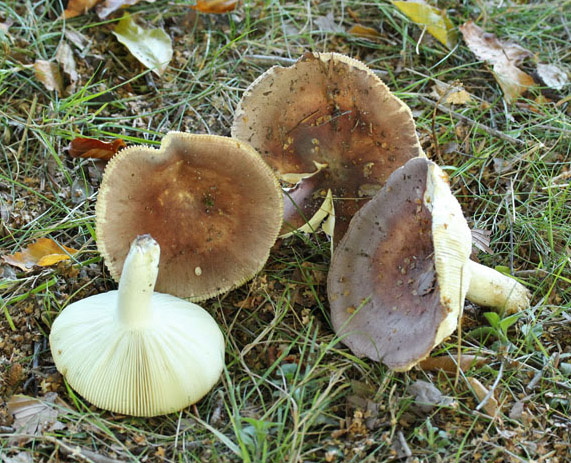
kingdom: Fungi
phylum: Basidiomycota
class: Agaricomycetes
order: Russulales
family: Russulaceae
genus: Russula
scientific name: Russula vesca
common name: spiselig skørhat
